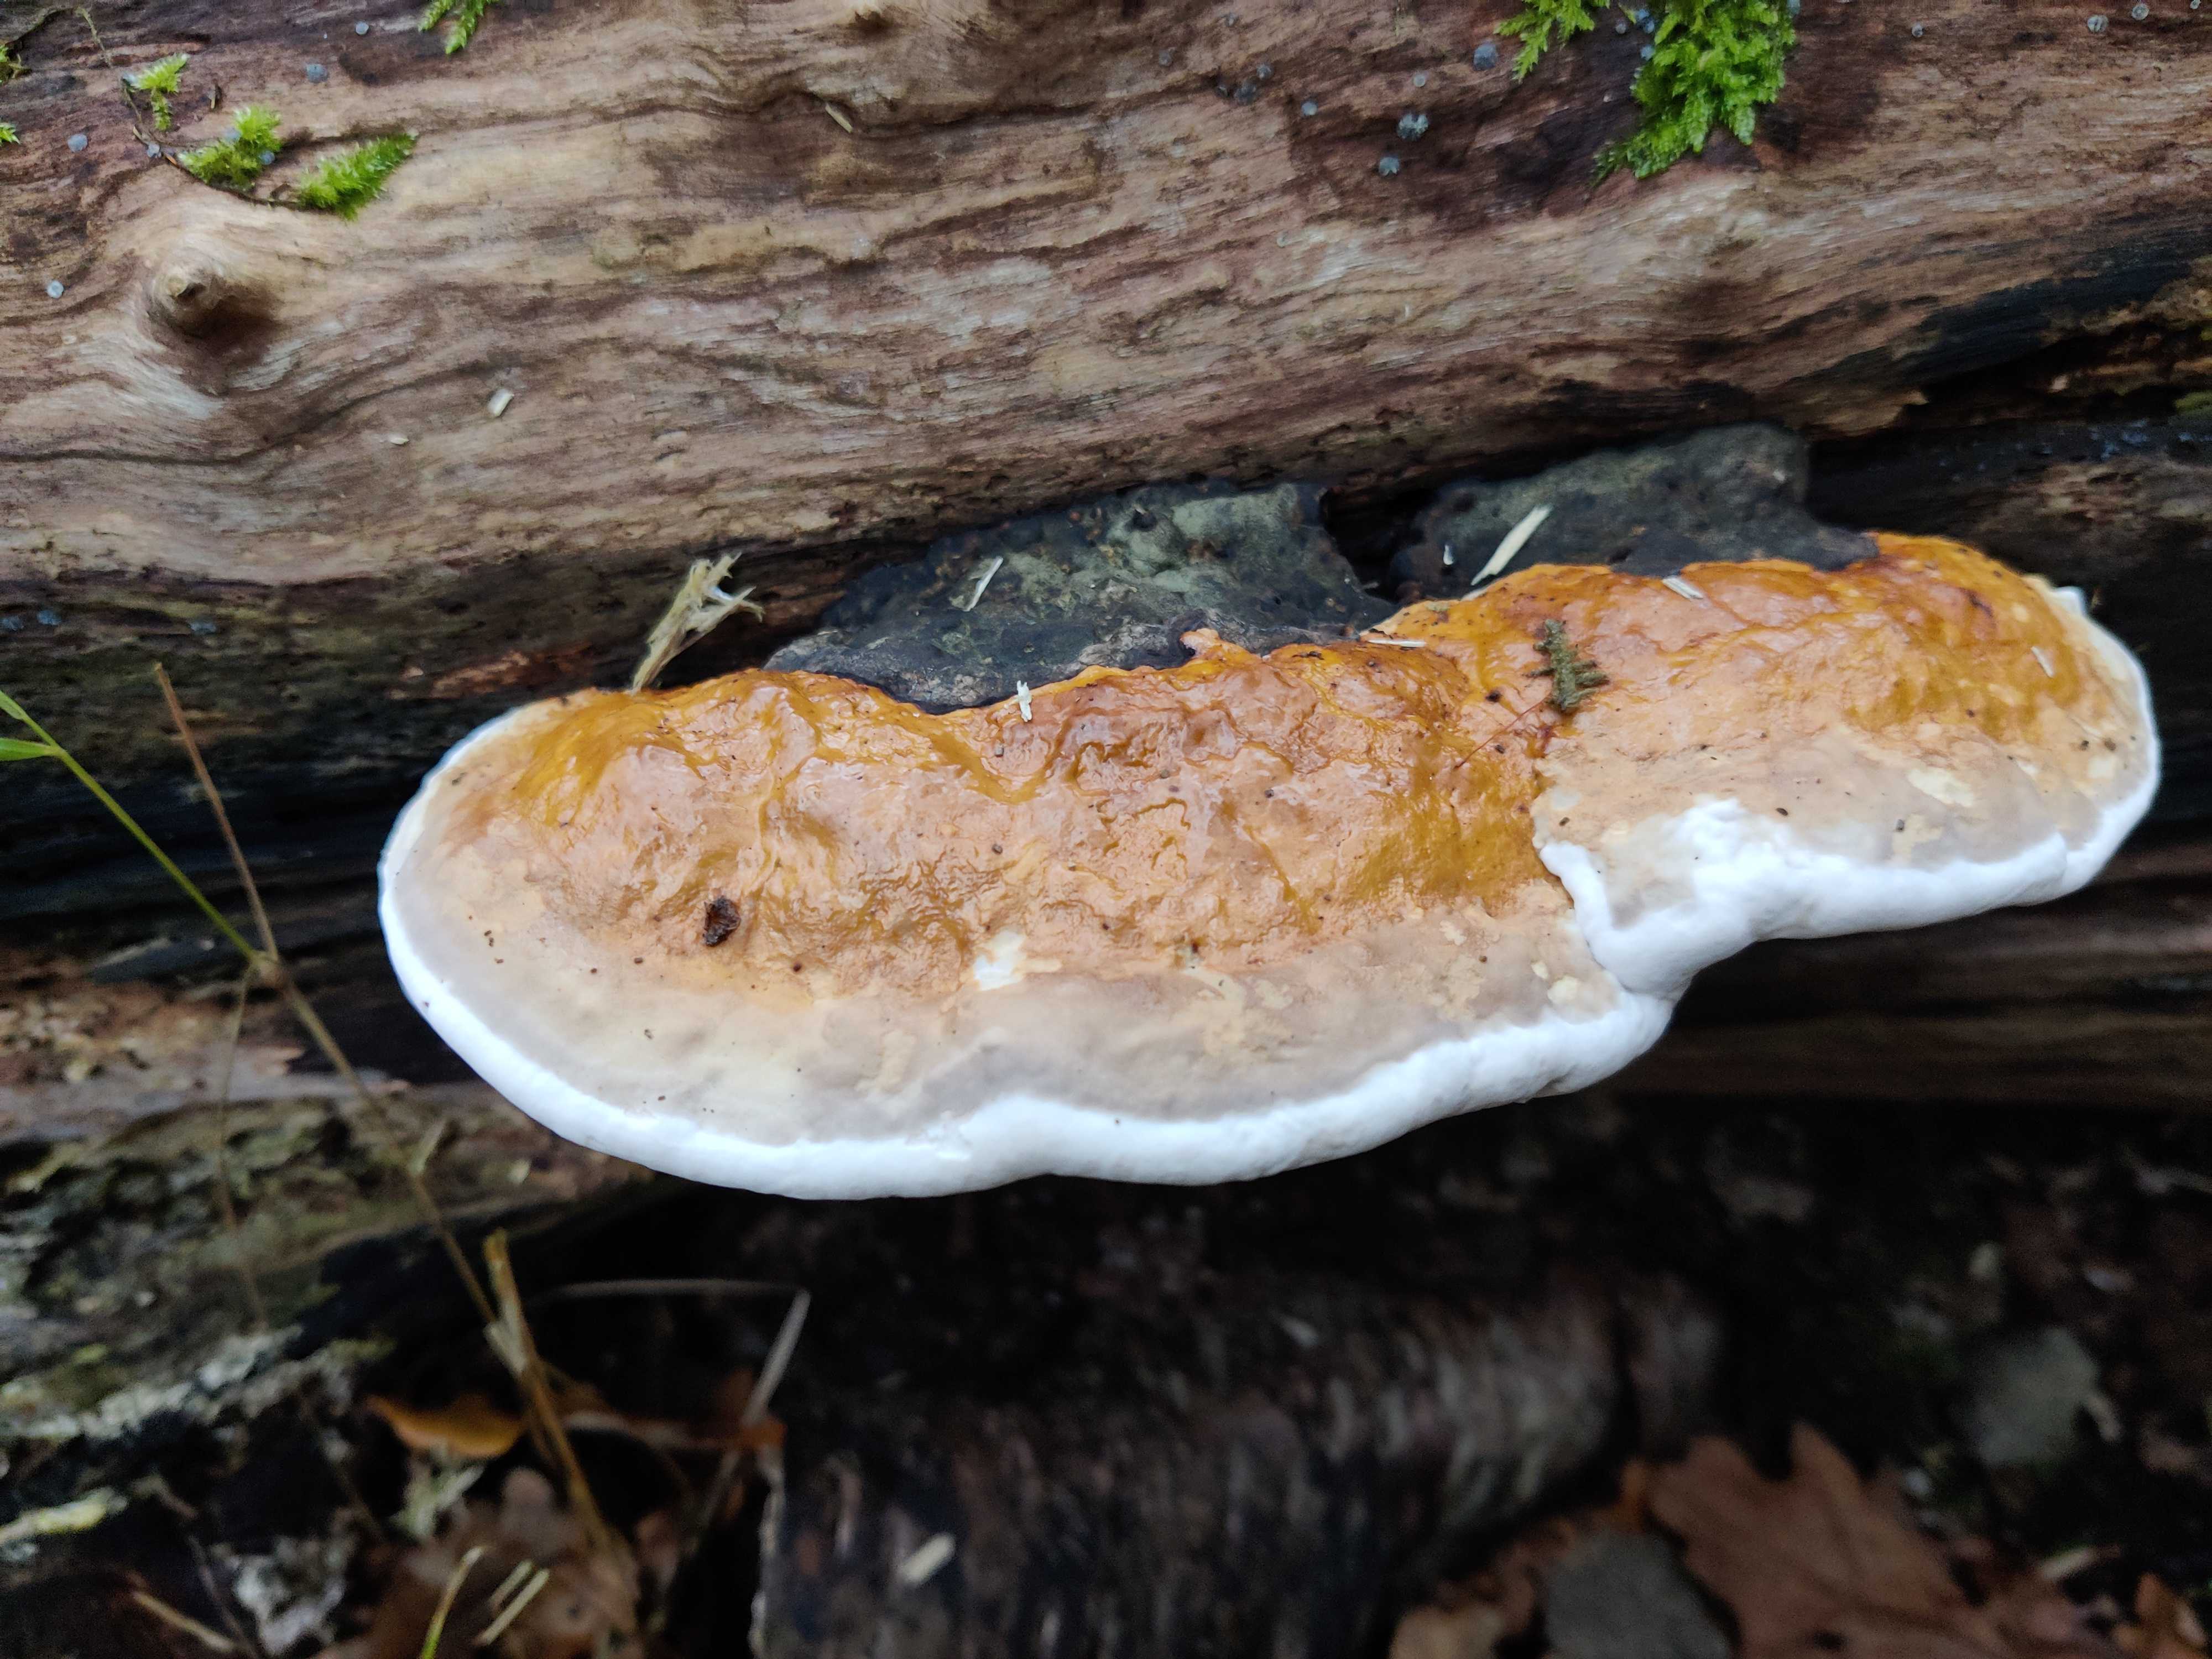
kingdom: Fungi
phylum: Basidiomycota
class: Agaricomycetes
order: Polyporales
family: Fomitopsidaceae
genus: Fomitopsis
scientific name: Fomitopsis pinicola
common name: randbæltet hovporesvamp
